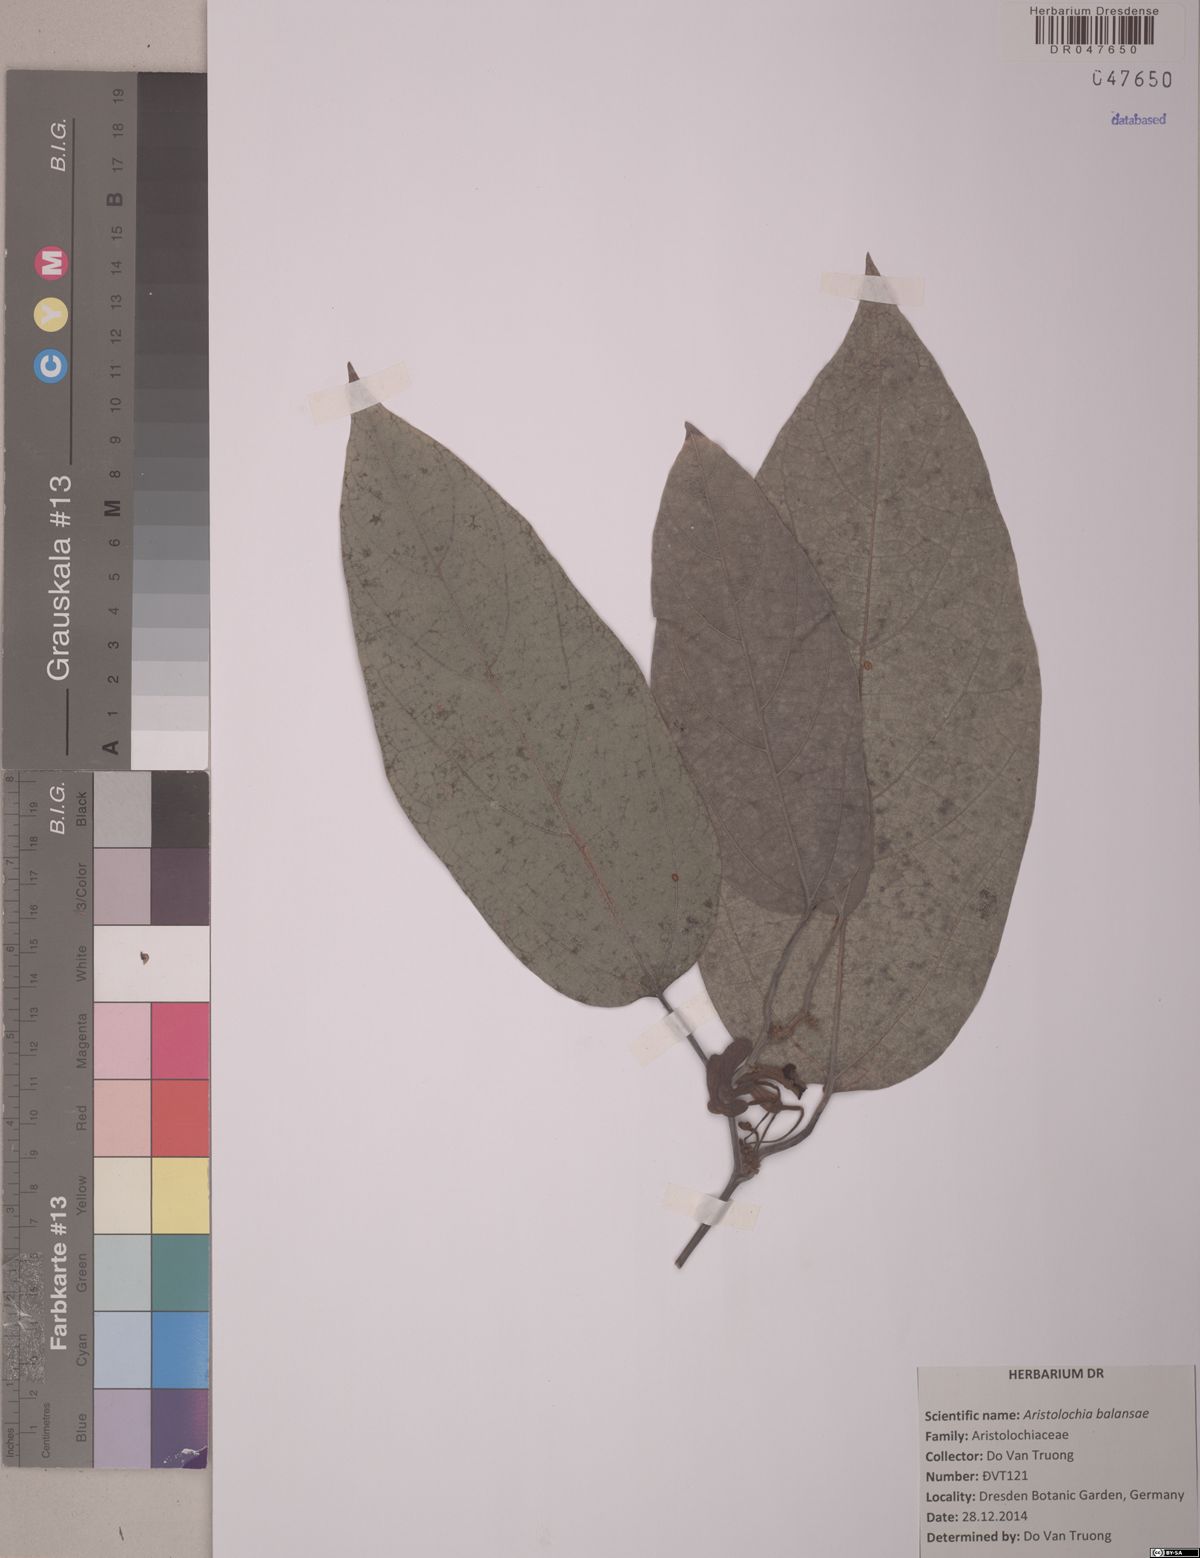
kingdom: Plantae
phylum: Tracheophyta
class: Magnoliopsida
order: Piperales
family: Aristolochiaceae
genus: Isotrema
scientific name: Isotrema balansae
